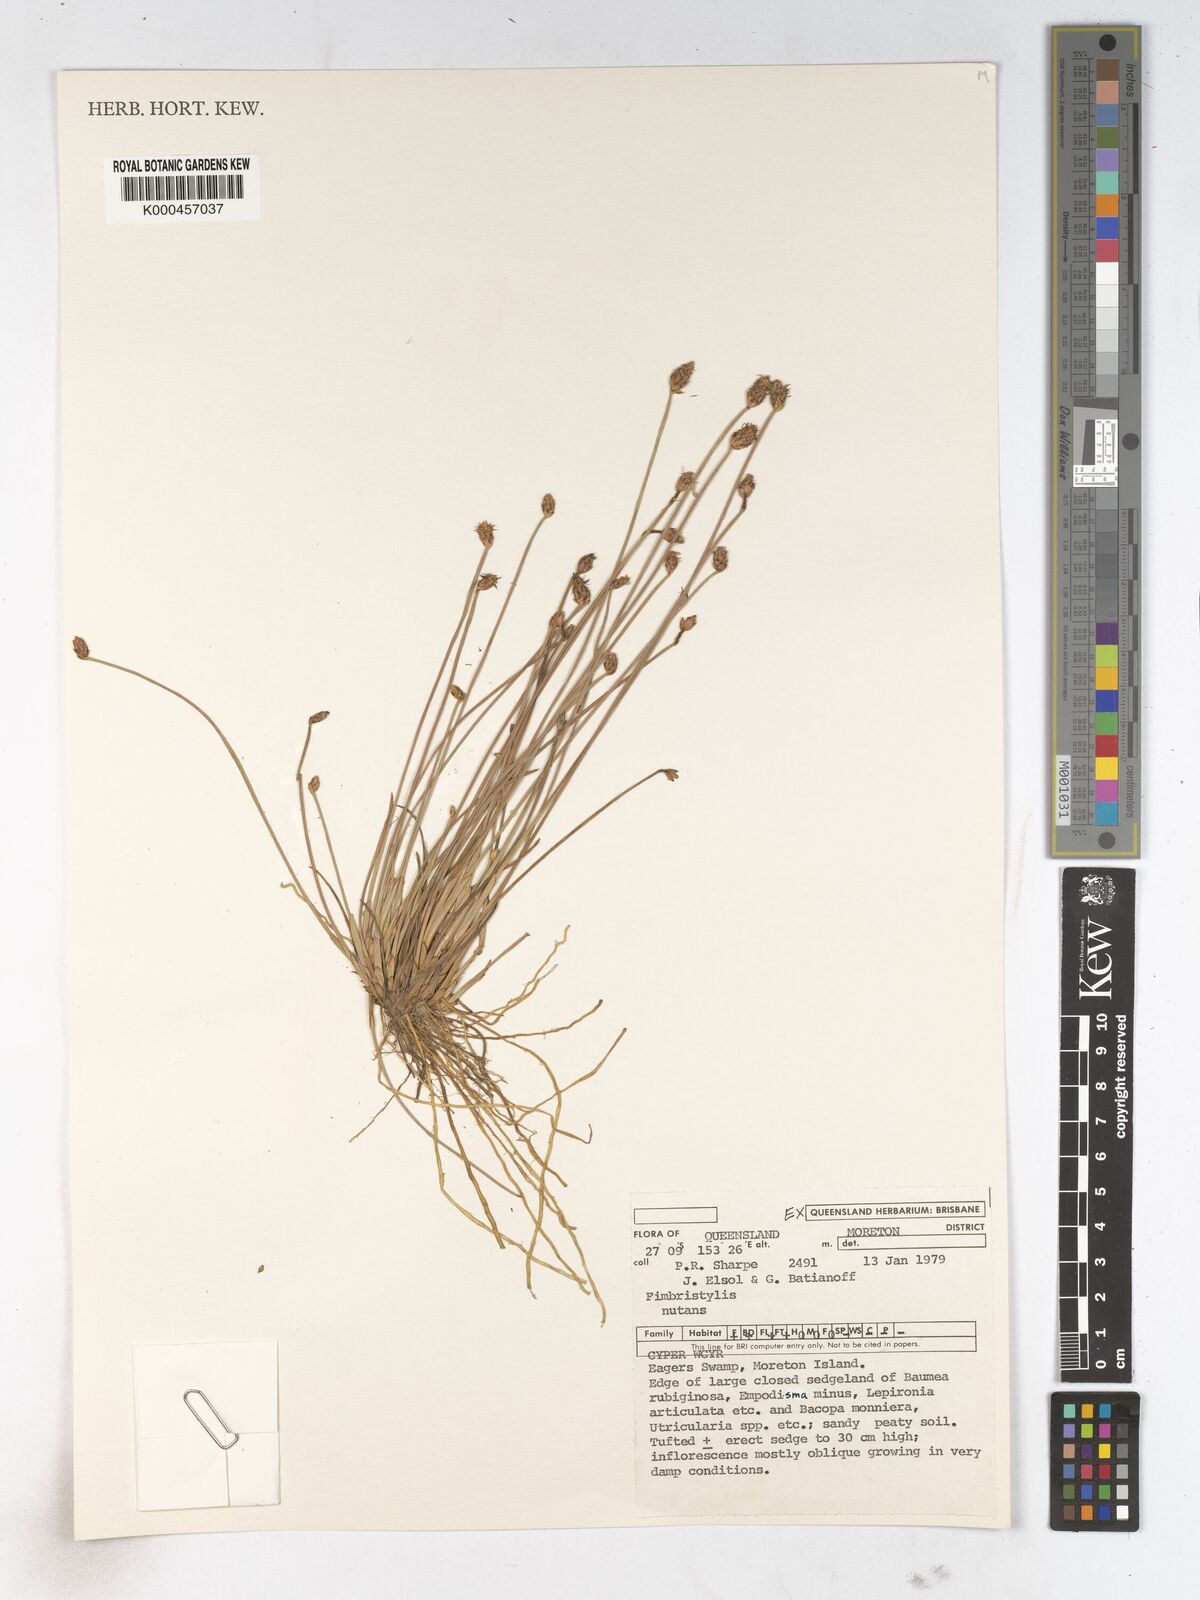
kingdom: Plantae
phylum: Tracheophyta
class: Liliopsida
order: Poales
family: Cyperaceae
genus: Fimbristylis
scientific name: Fimbristylis nutans
